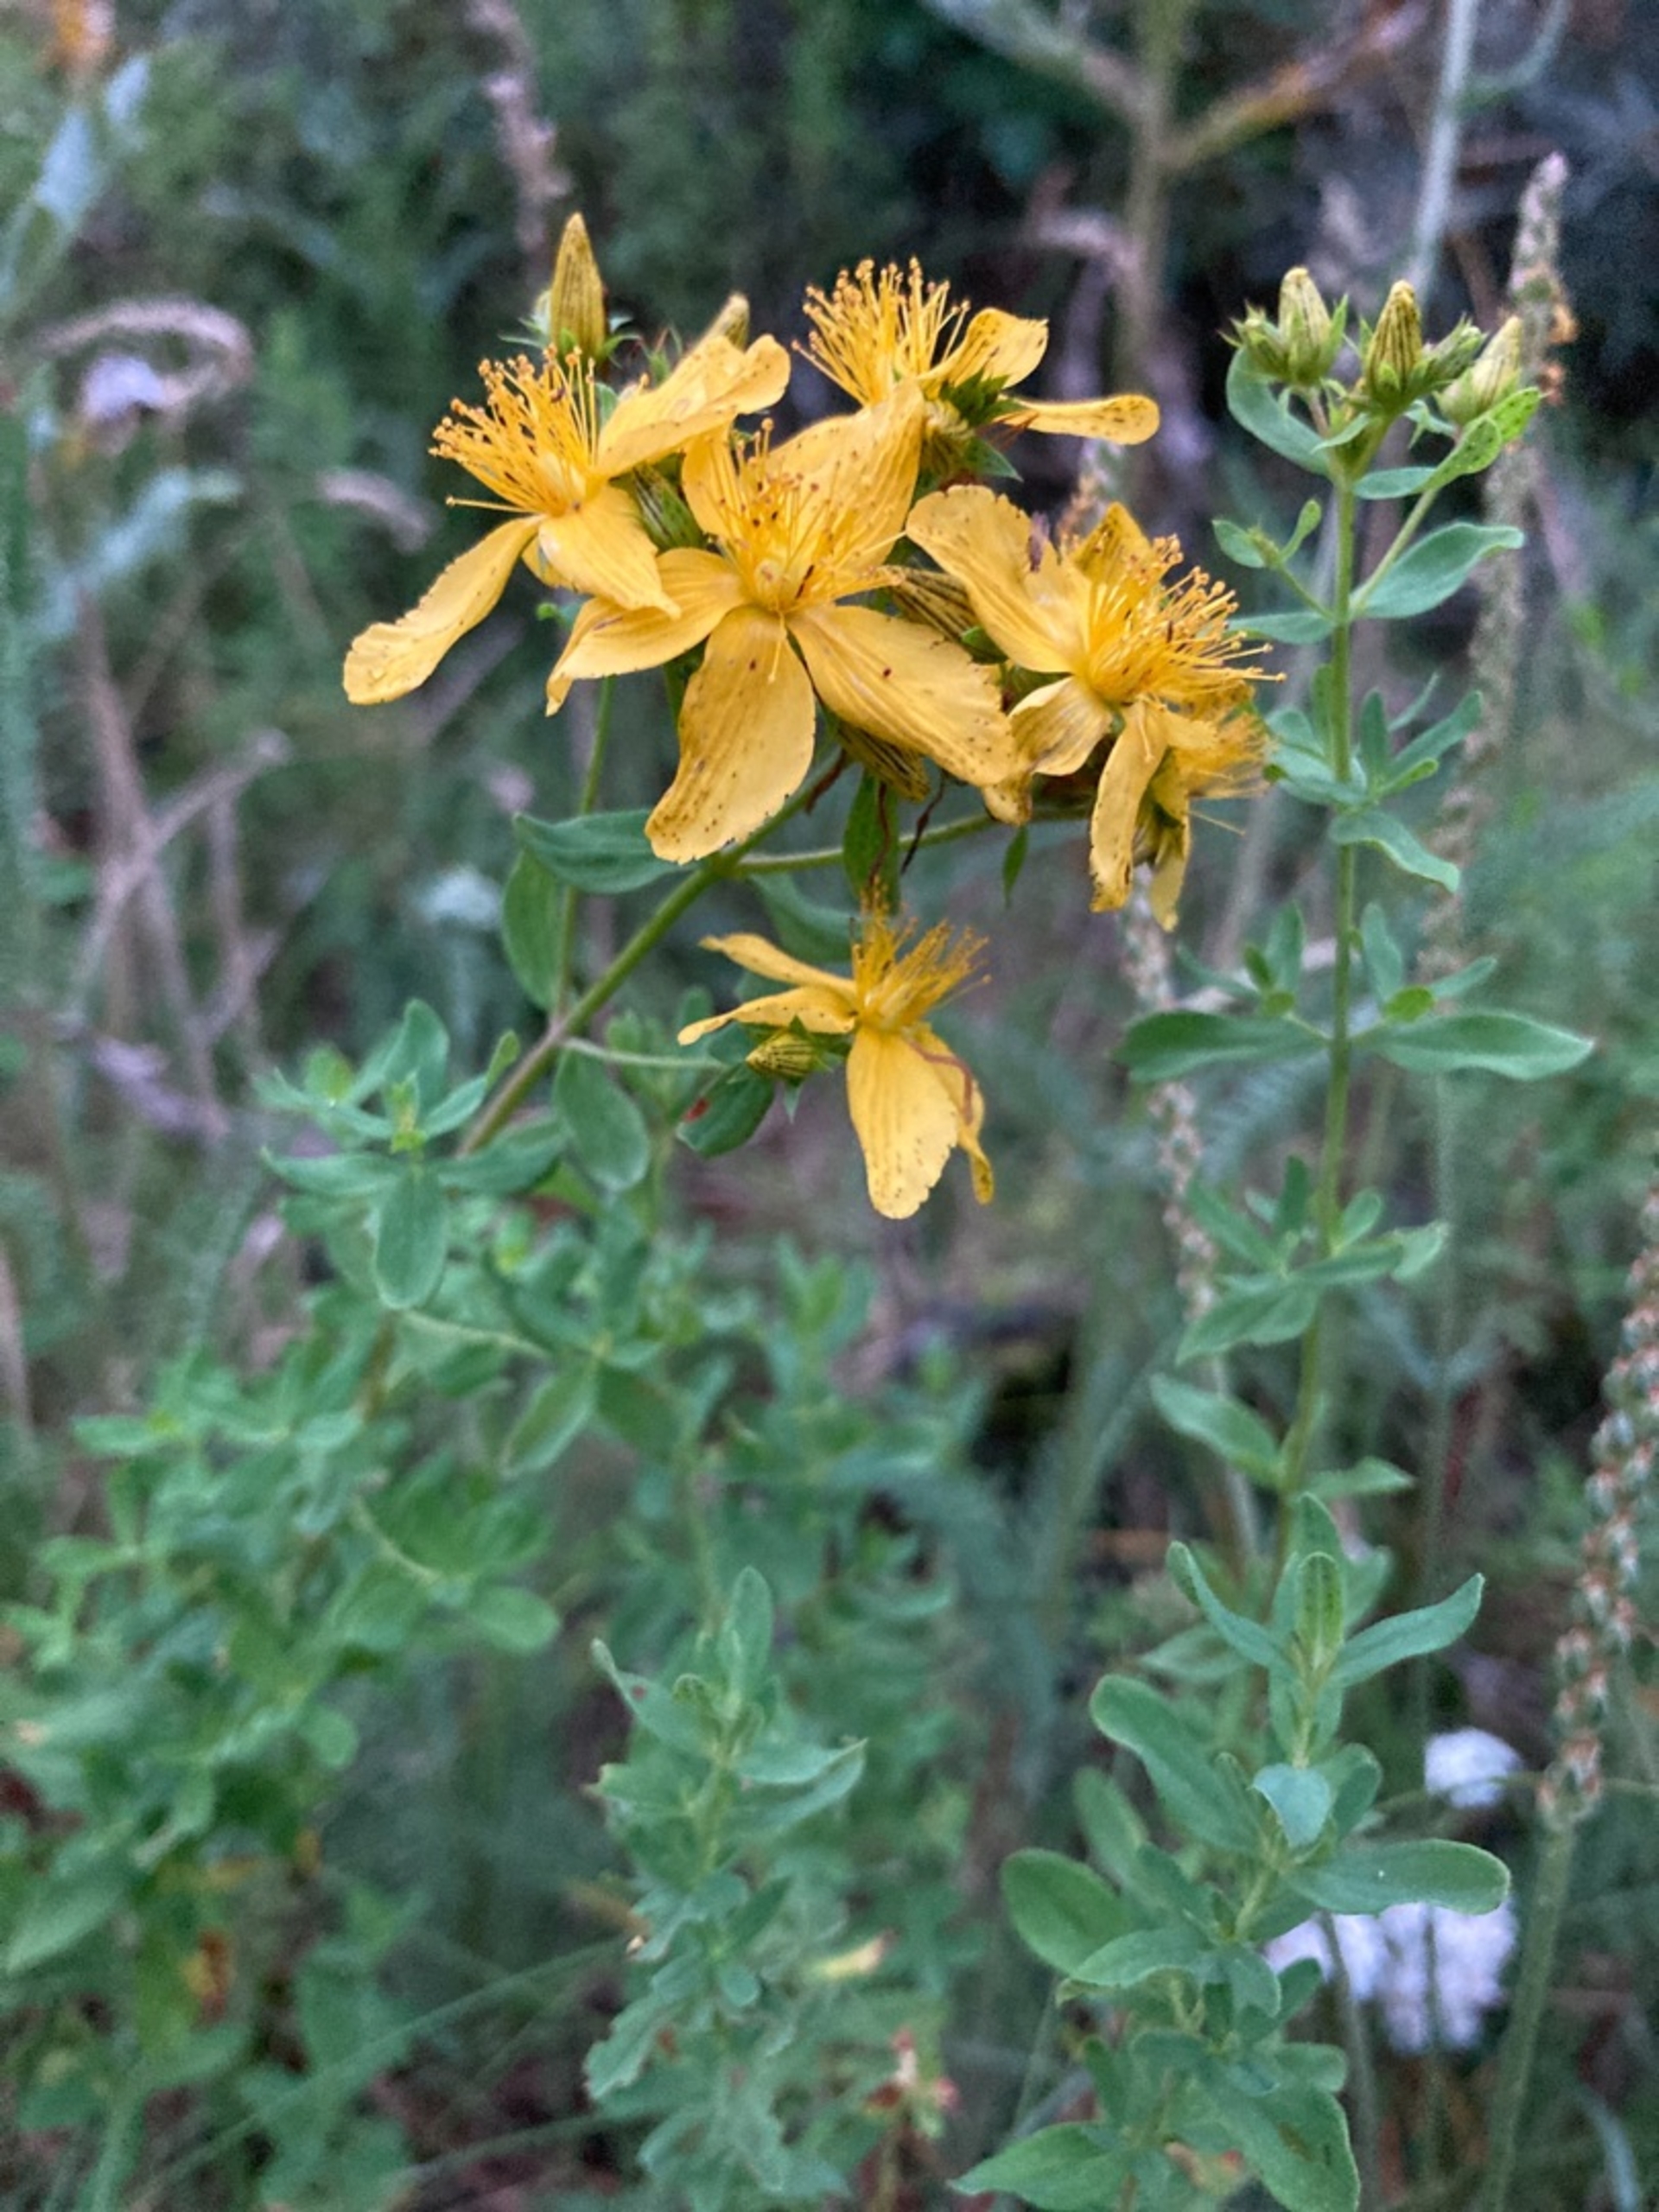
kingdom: Plantae
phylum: Tracheophyta
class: Magnoliopsida
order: Malpighiales
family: Hypericaceae
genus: Hypericum
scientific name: Hypericum perforatum
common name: Prikbladet perikon
